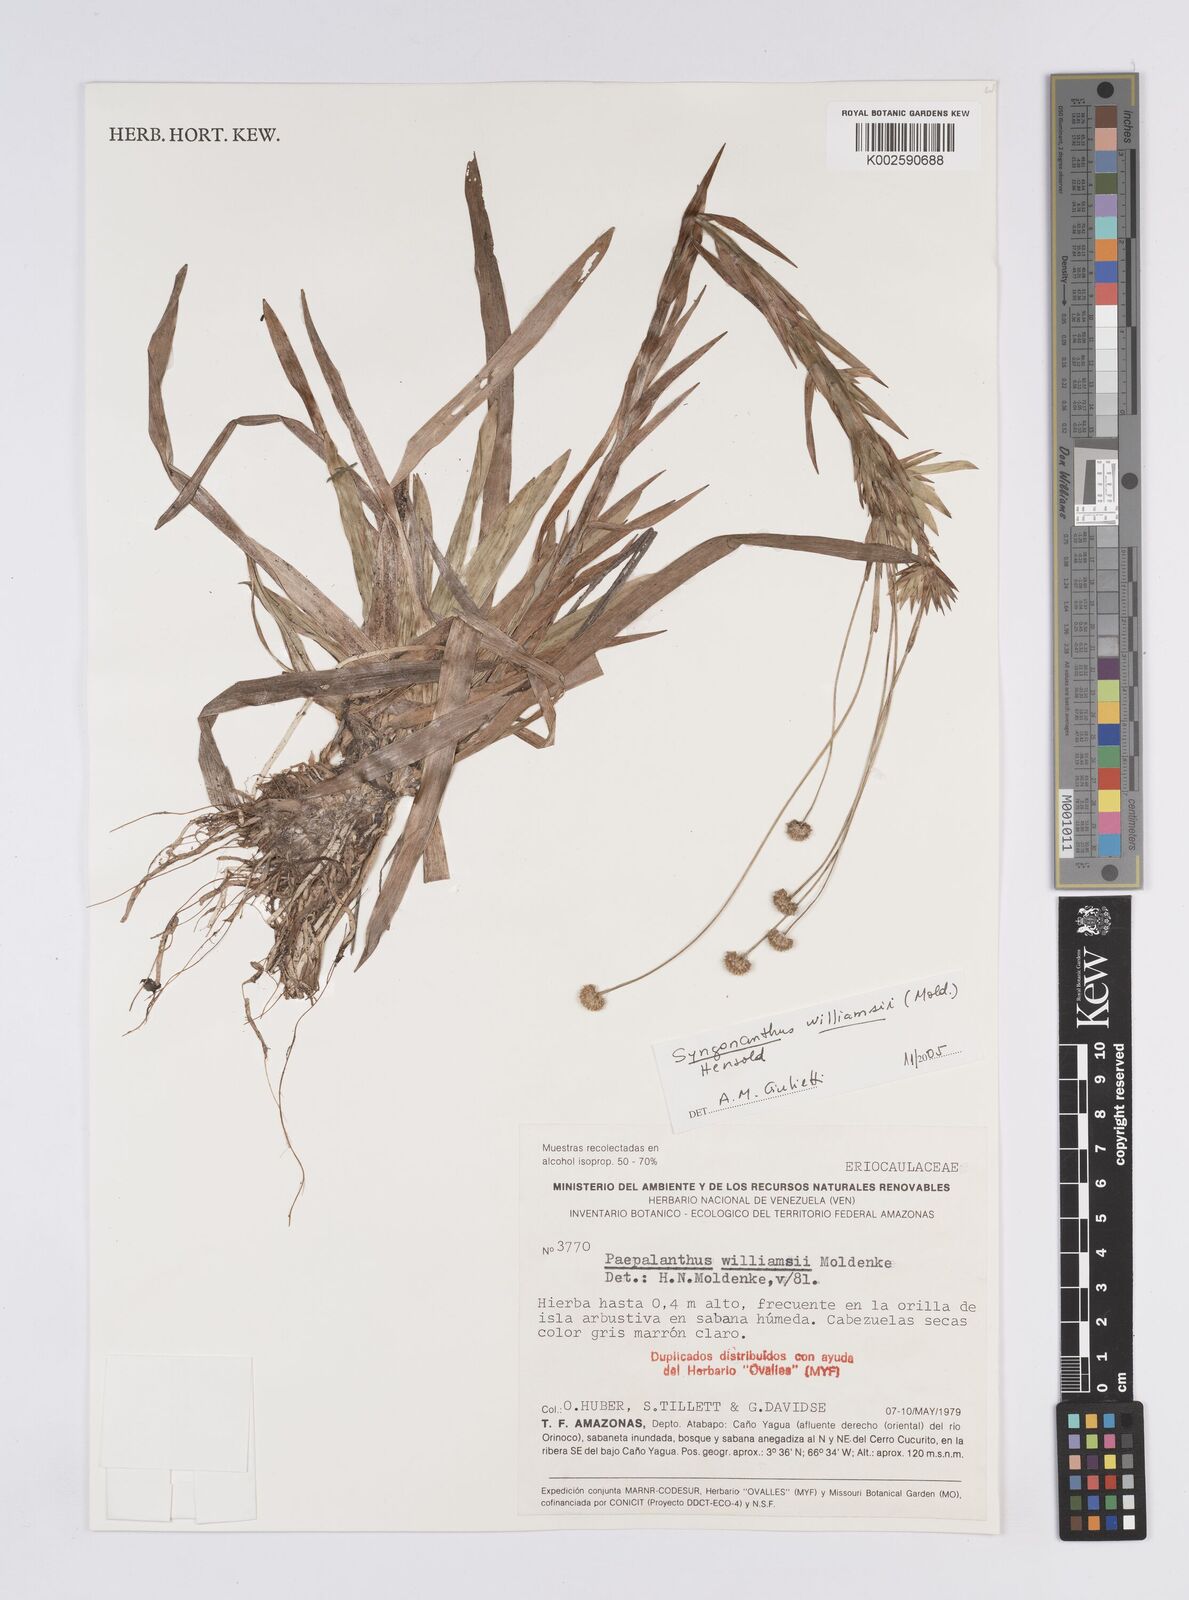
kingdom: Plantae
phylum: Tracheophyta
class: Liliopsida
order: Poales
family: Eriocaulaceae
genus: Syngonanthus
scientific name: Syngonanthus williamsii
